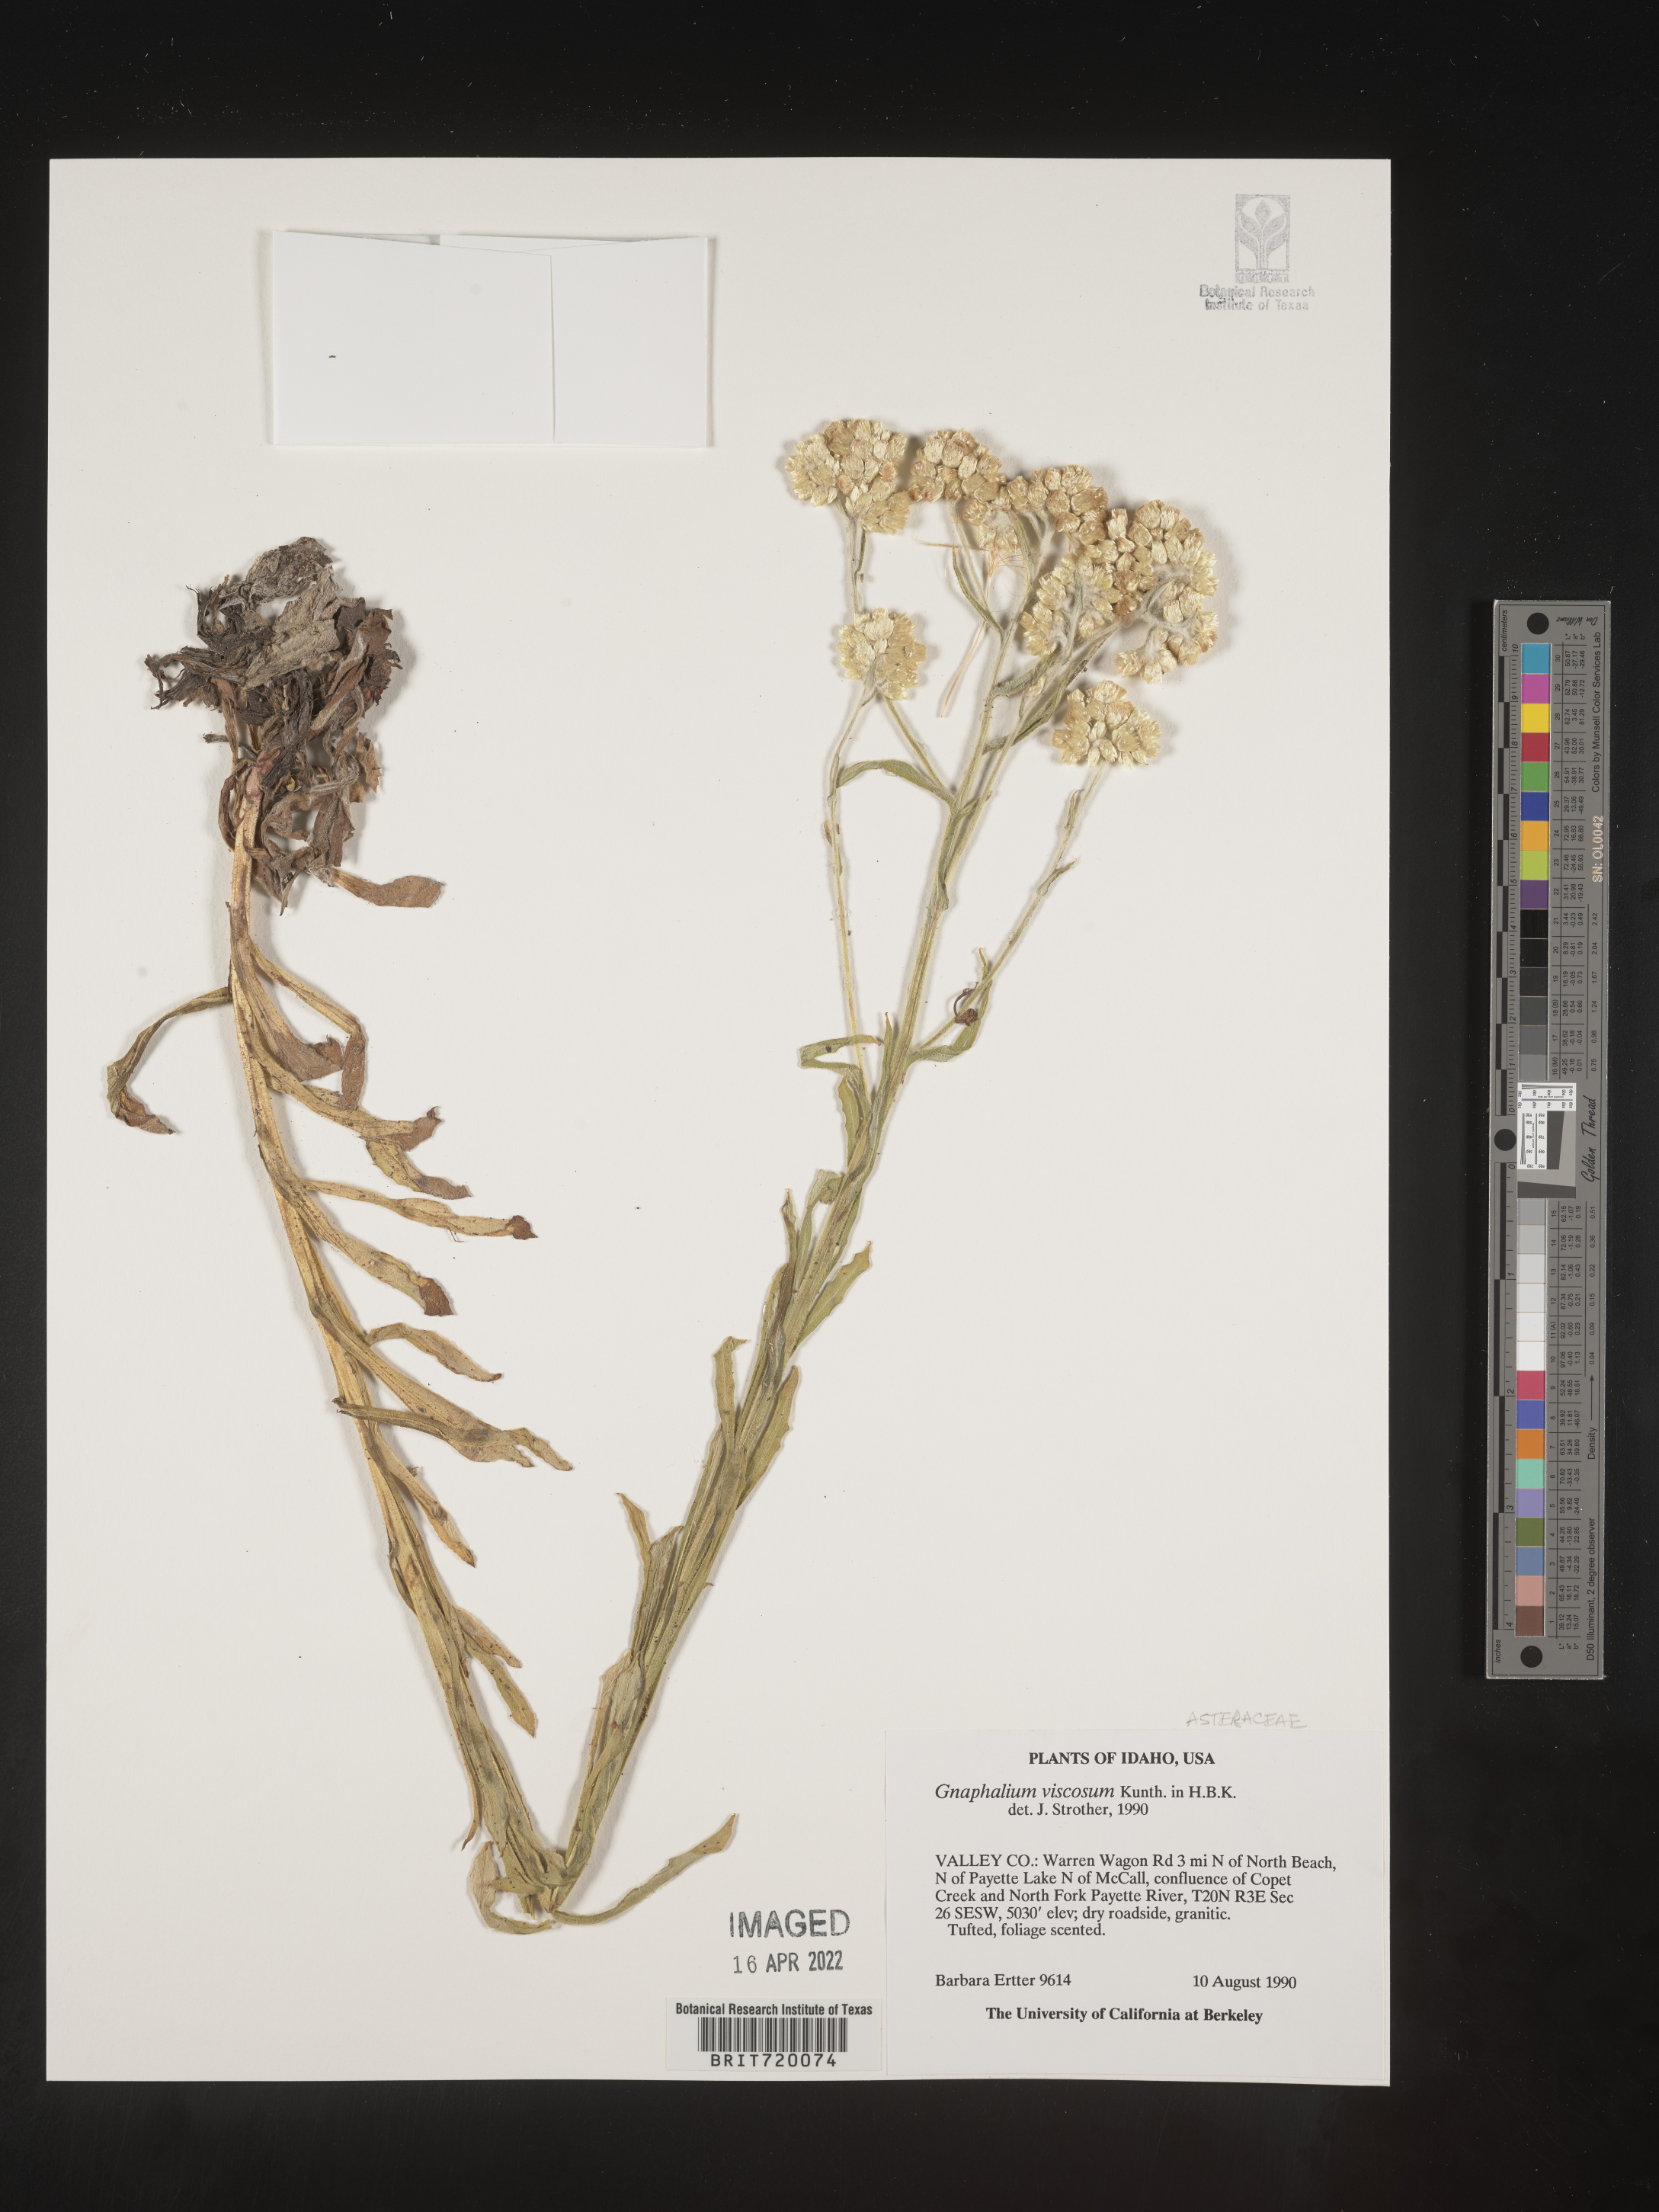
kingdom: Plantae
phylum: Tracheophyta
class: Magnoliopsida
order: Asterales
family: Asteraceae
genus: Pseudognaphalium
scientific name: Pseudognaphalium viscosum
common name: Sticky rabbit-tobacco
